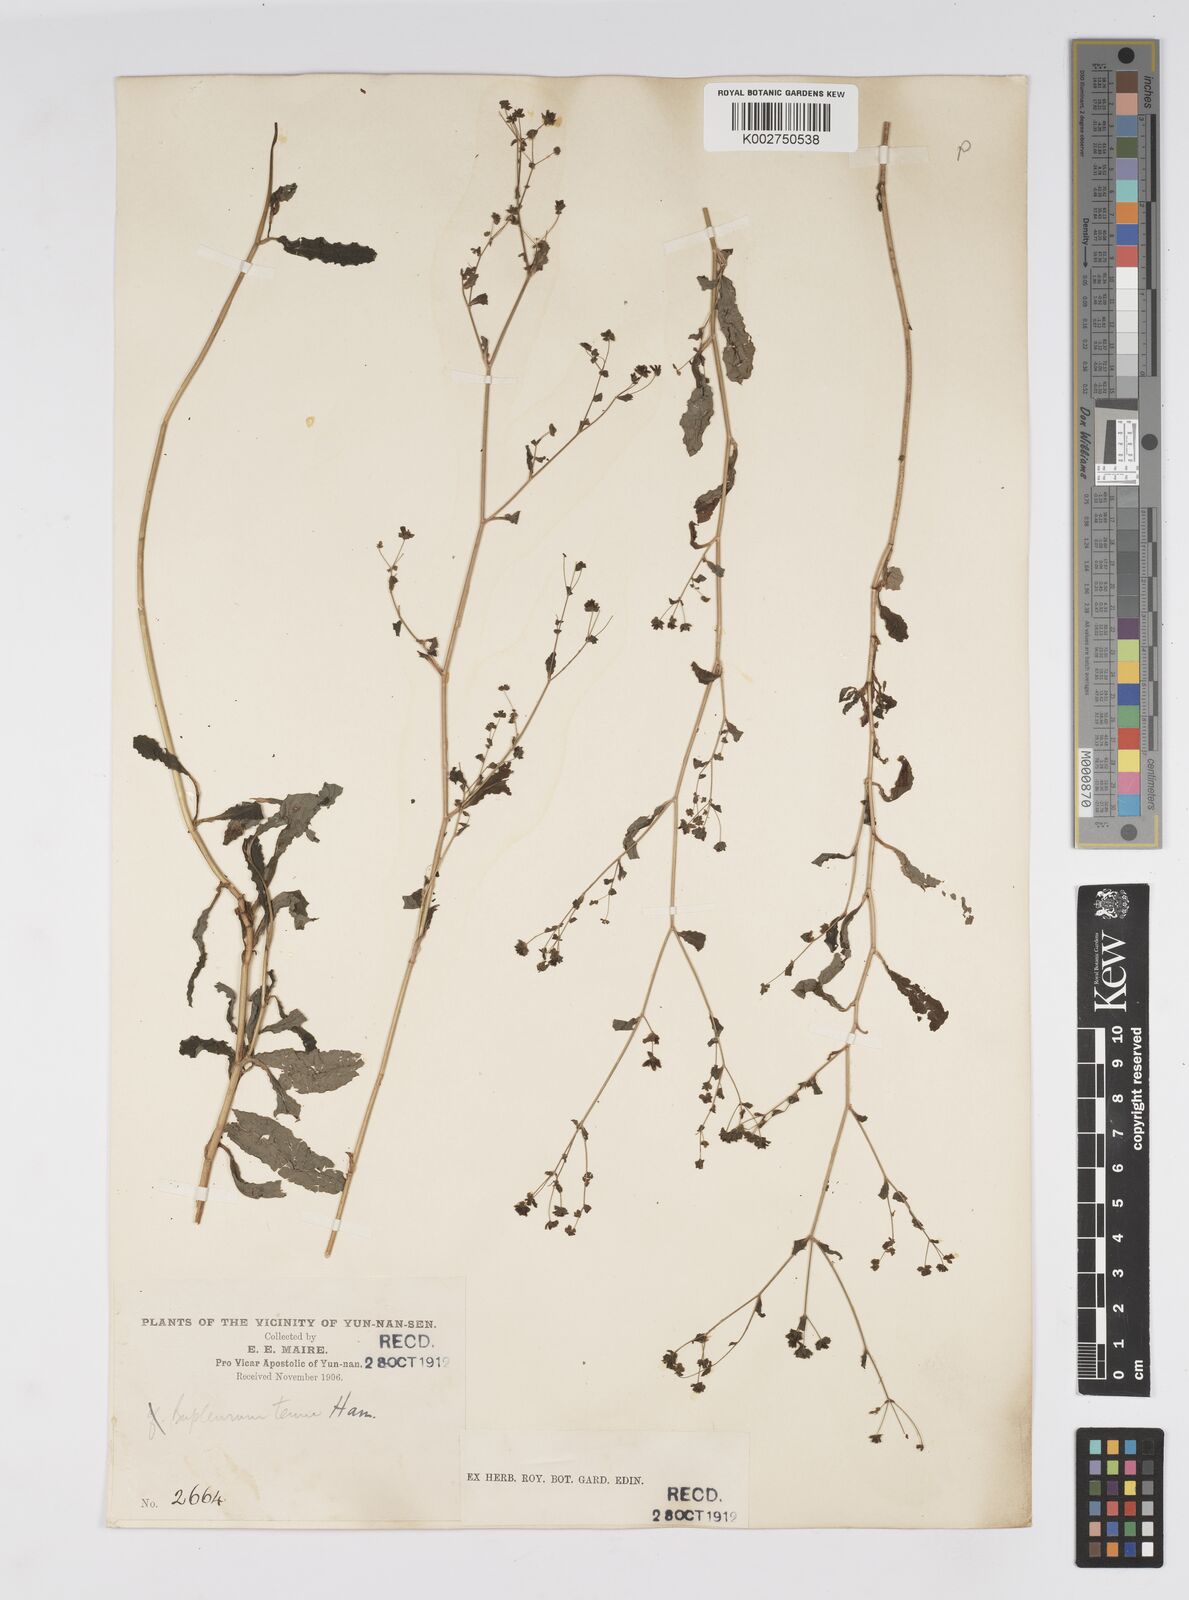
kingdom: Plantae
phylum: Tracheophyta
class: Magnoliopsida
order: Apiales
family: Apiaceae
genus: Bupleurum
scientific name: Bupleurum hamiltonii
